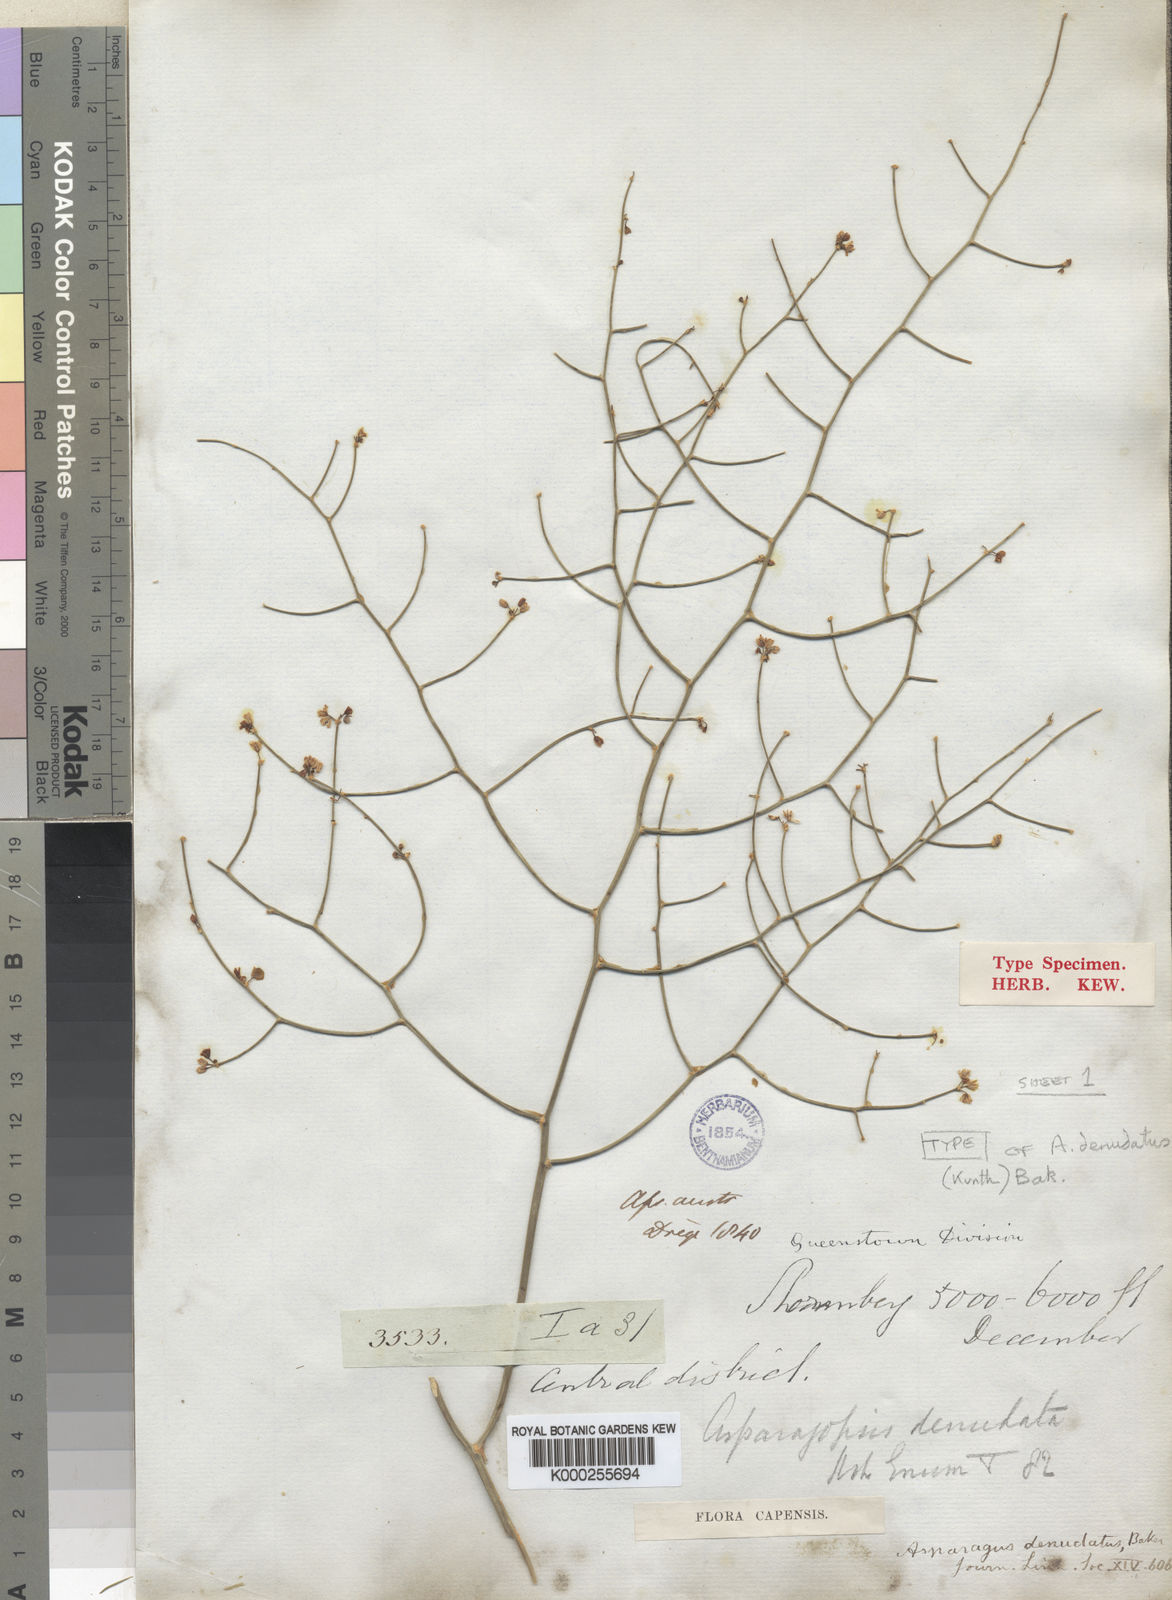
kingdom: Plantae
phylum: Tracheophyta
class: Liliopsida
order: Asparagales
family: Asparagaceae
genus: Asparagus
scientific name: Asparagus denudatus
